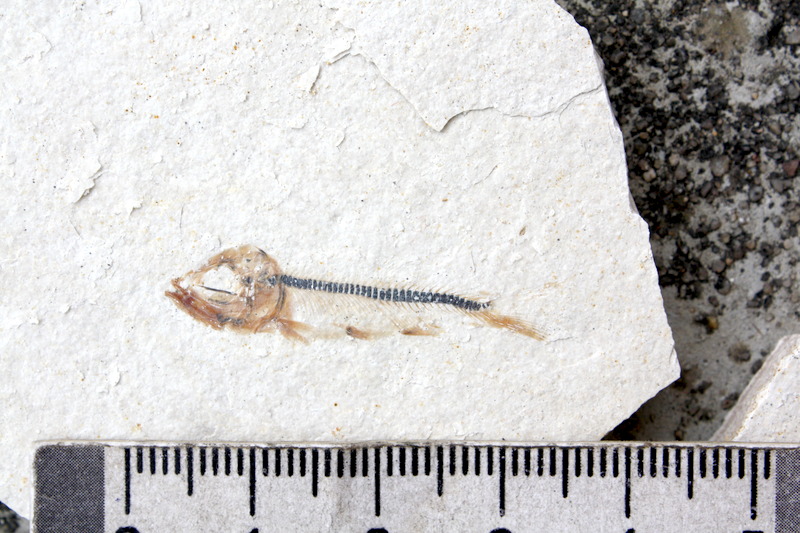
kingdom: Animalia
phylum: Chordata
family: Ascalaboidae
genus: Ebertichthys
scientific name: Ebertichthys ettlingensis
